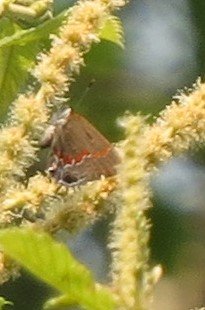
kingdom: Animalia
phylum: Arthropoda
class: Insecta
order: Lepidoptera
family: Lycaenidae
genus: Calycopis
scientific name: Calycopis cecrops
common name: Red-banded Hairstreak
